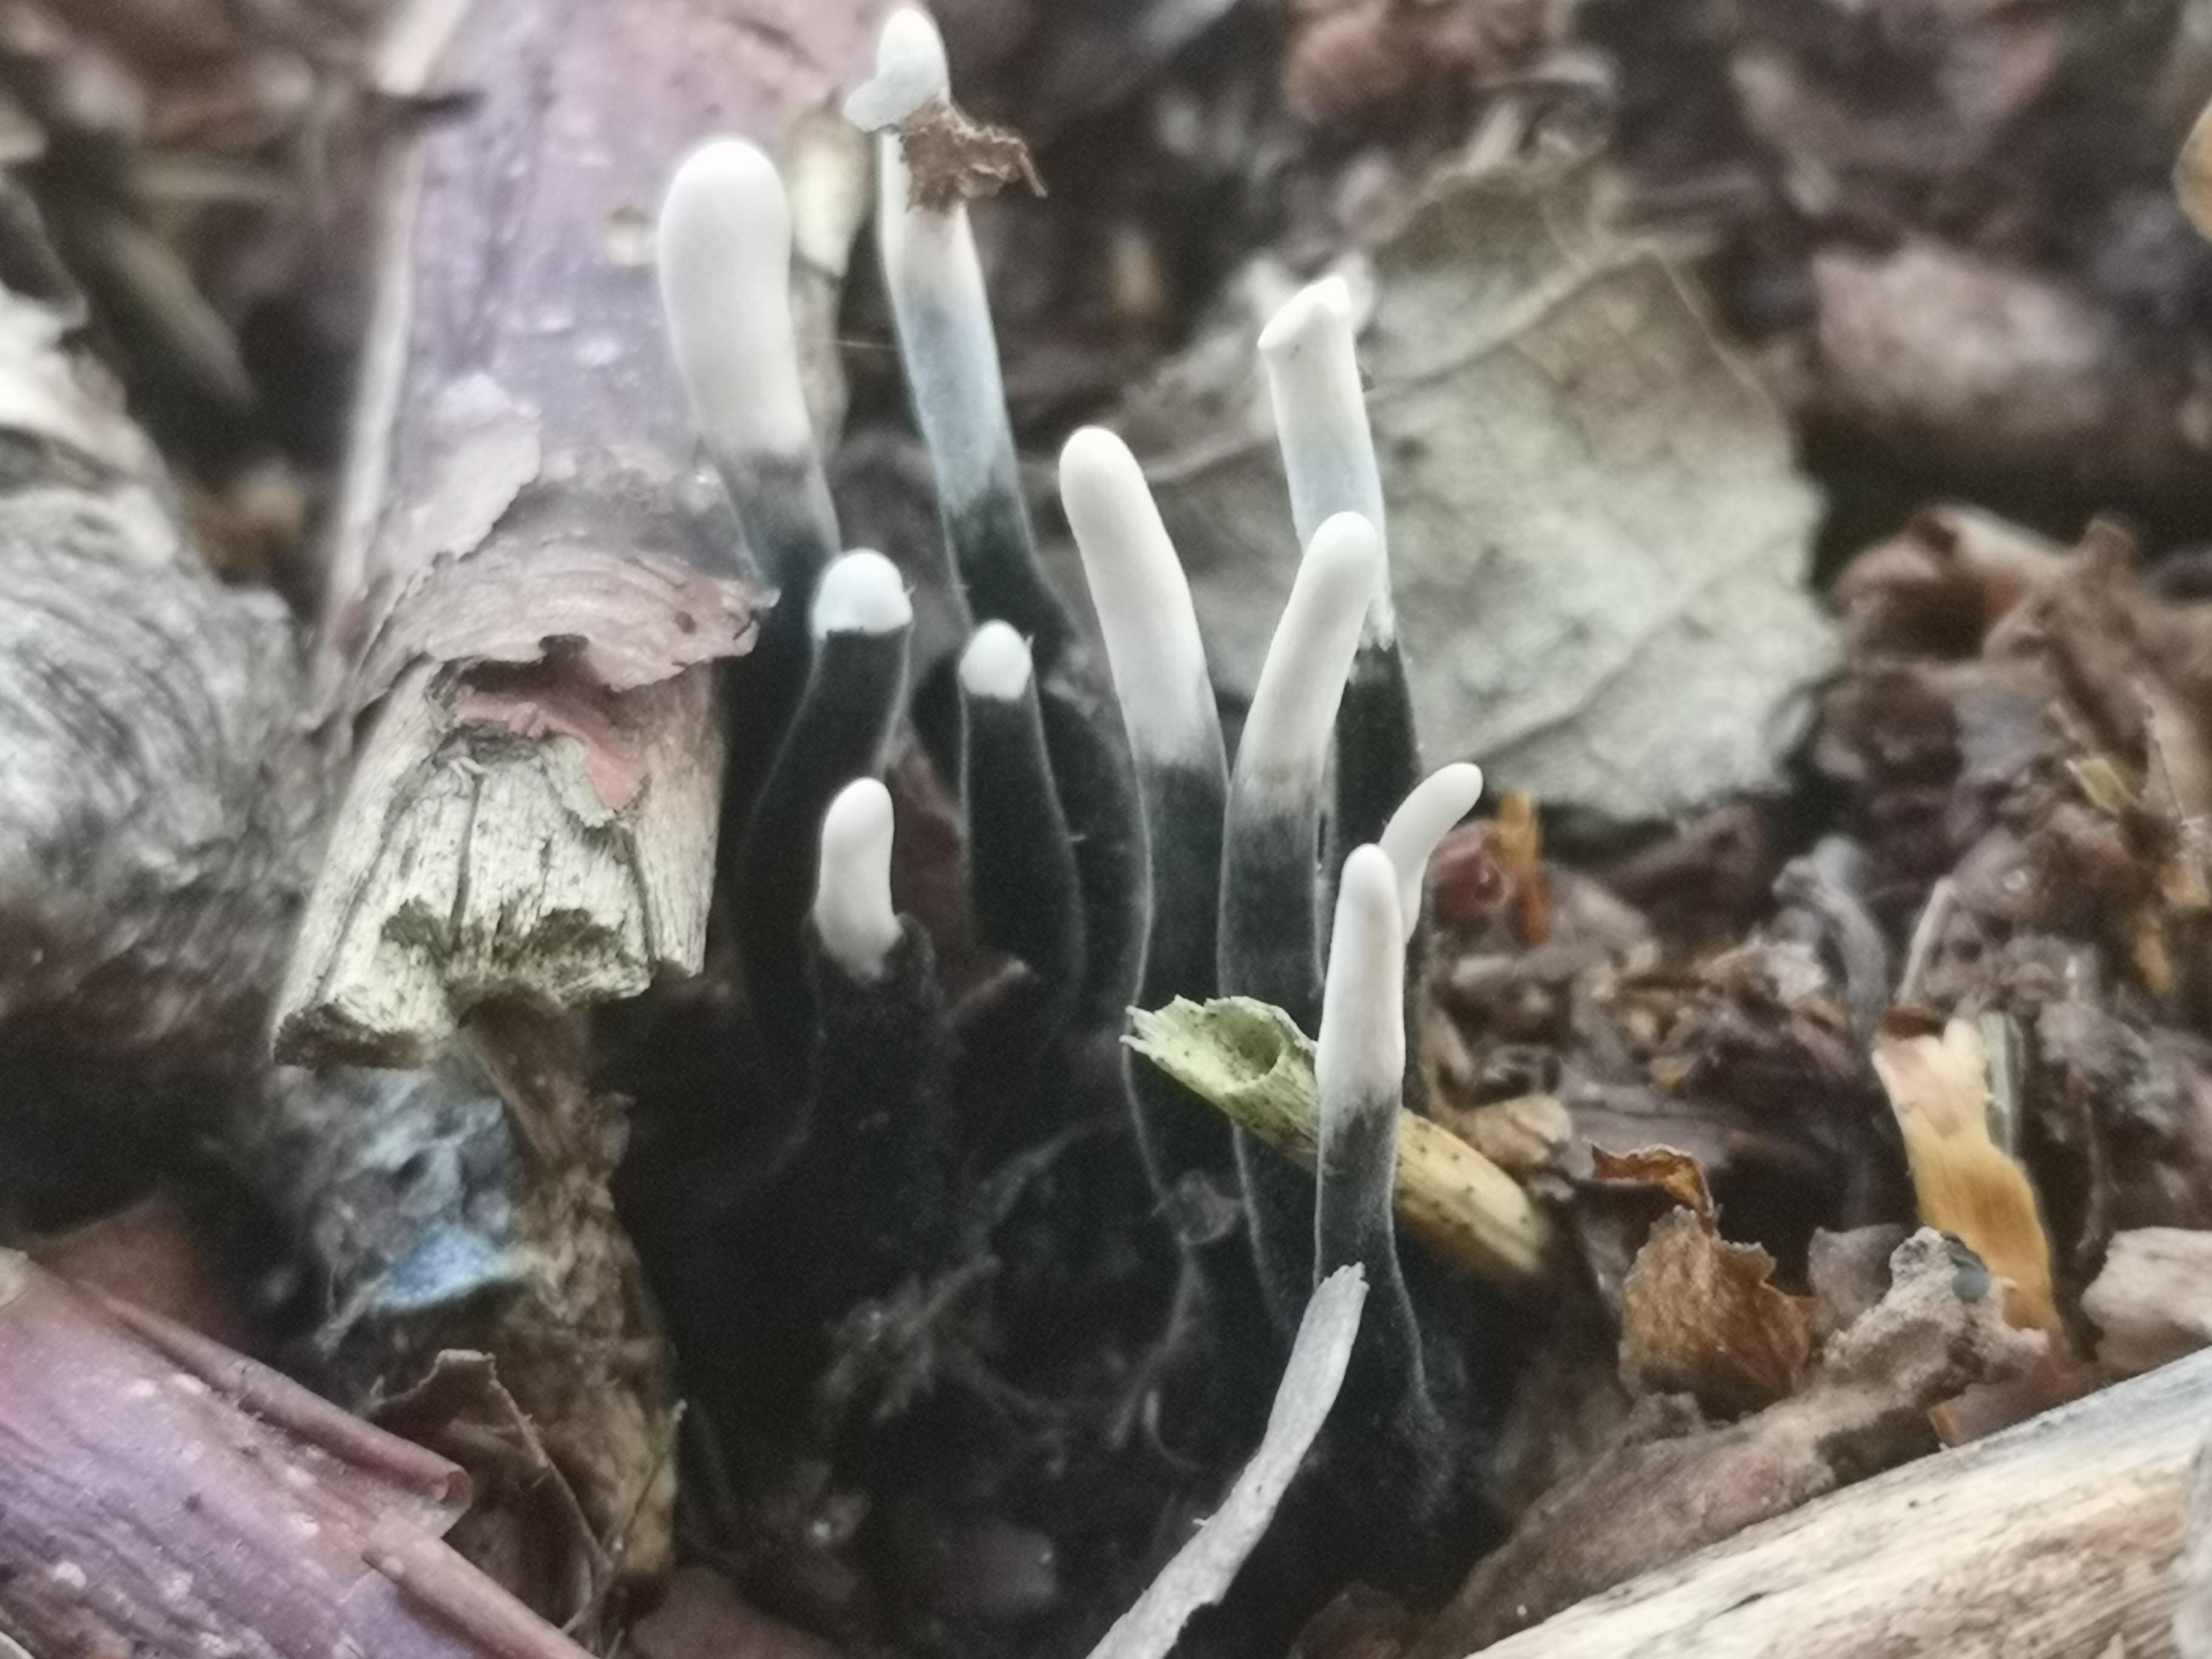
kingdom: Fungi
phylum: Ascomycota
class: Sordariomycetes
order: Xylariales
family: Xylariaceae
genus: Xylaria
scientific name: Xylaria hypoxylon
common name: grenet stødsvamp
